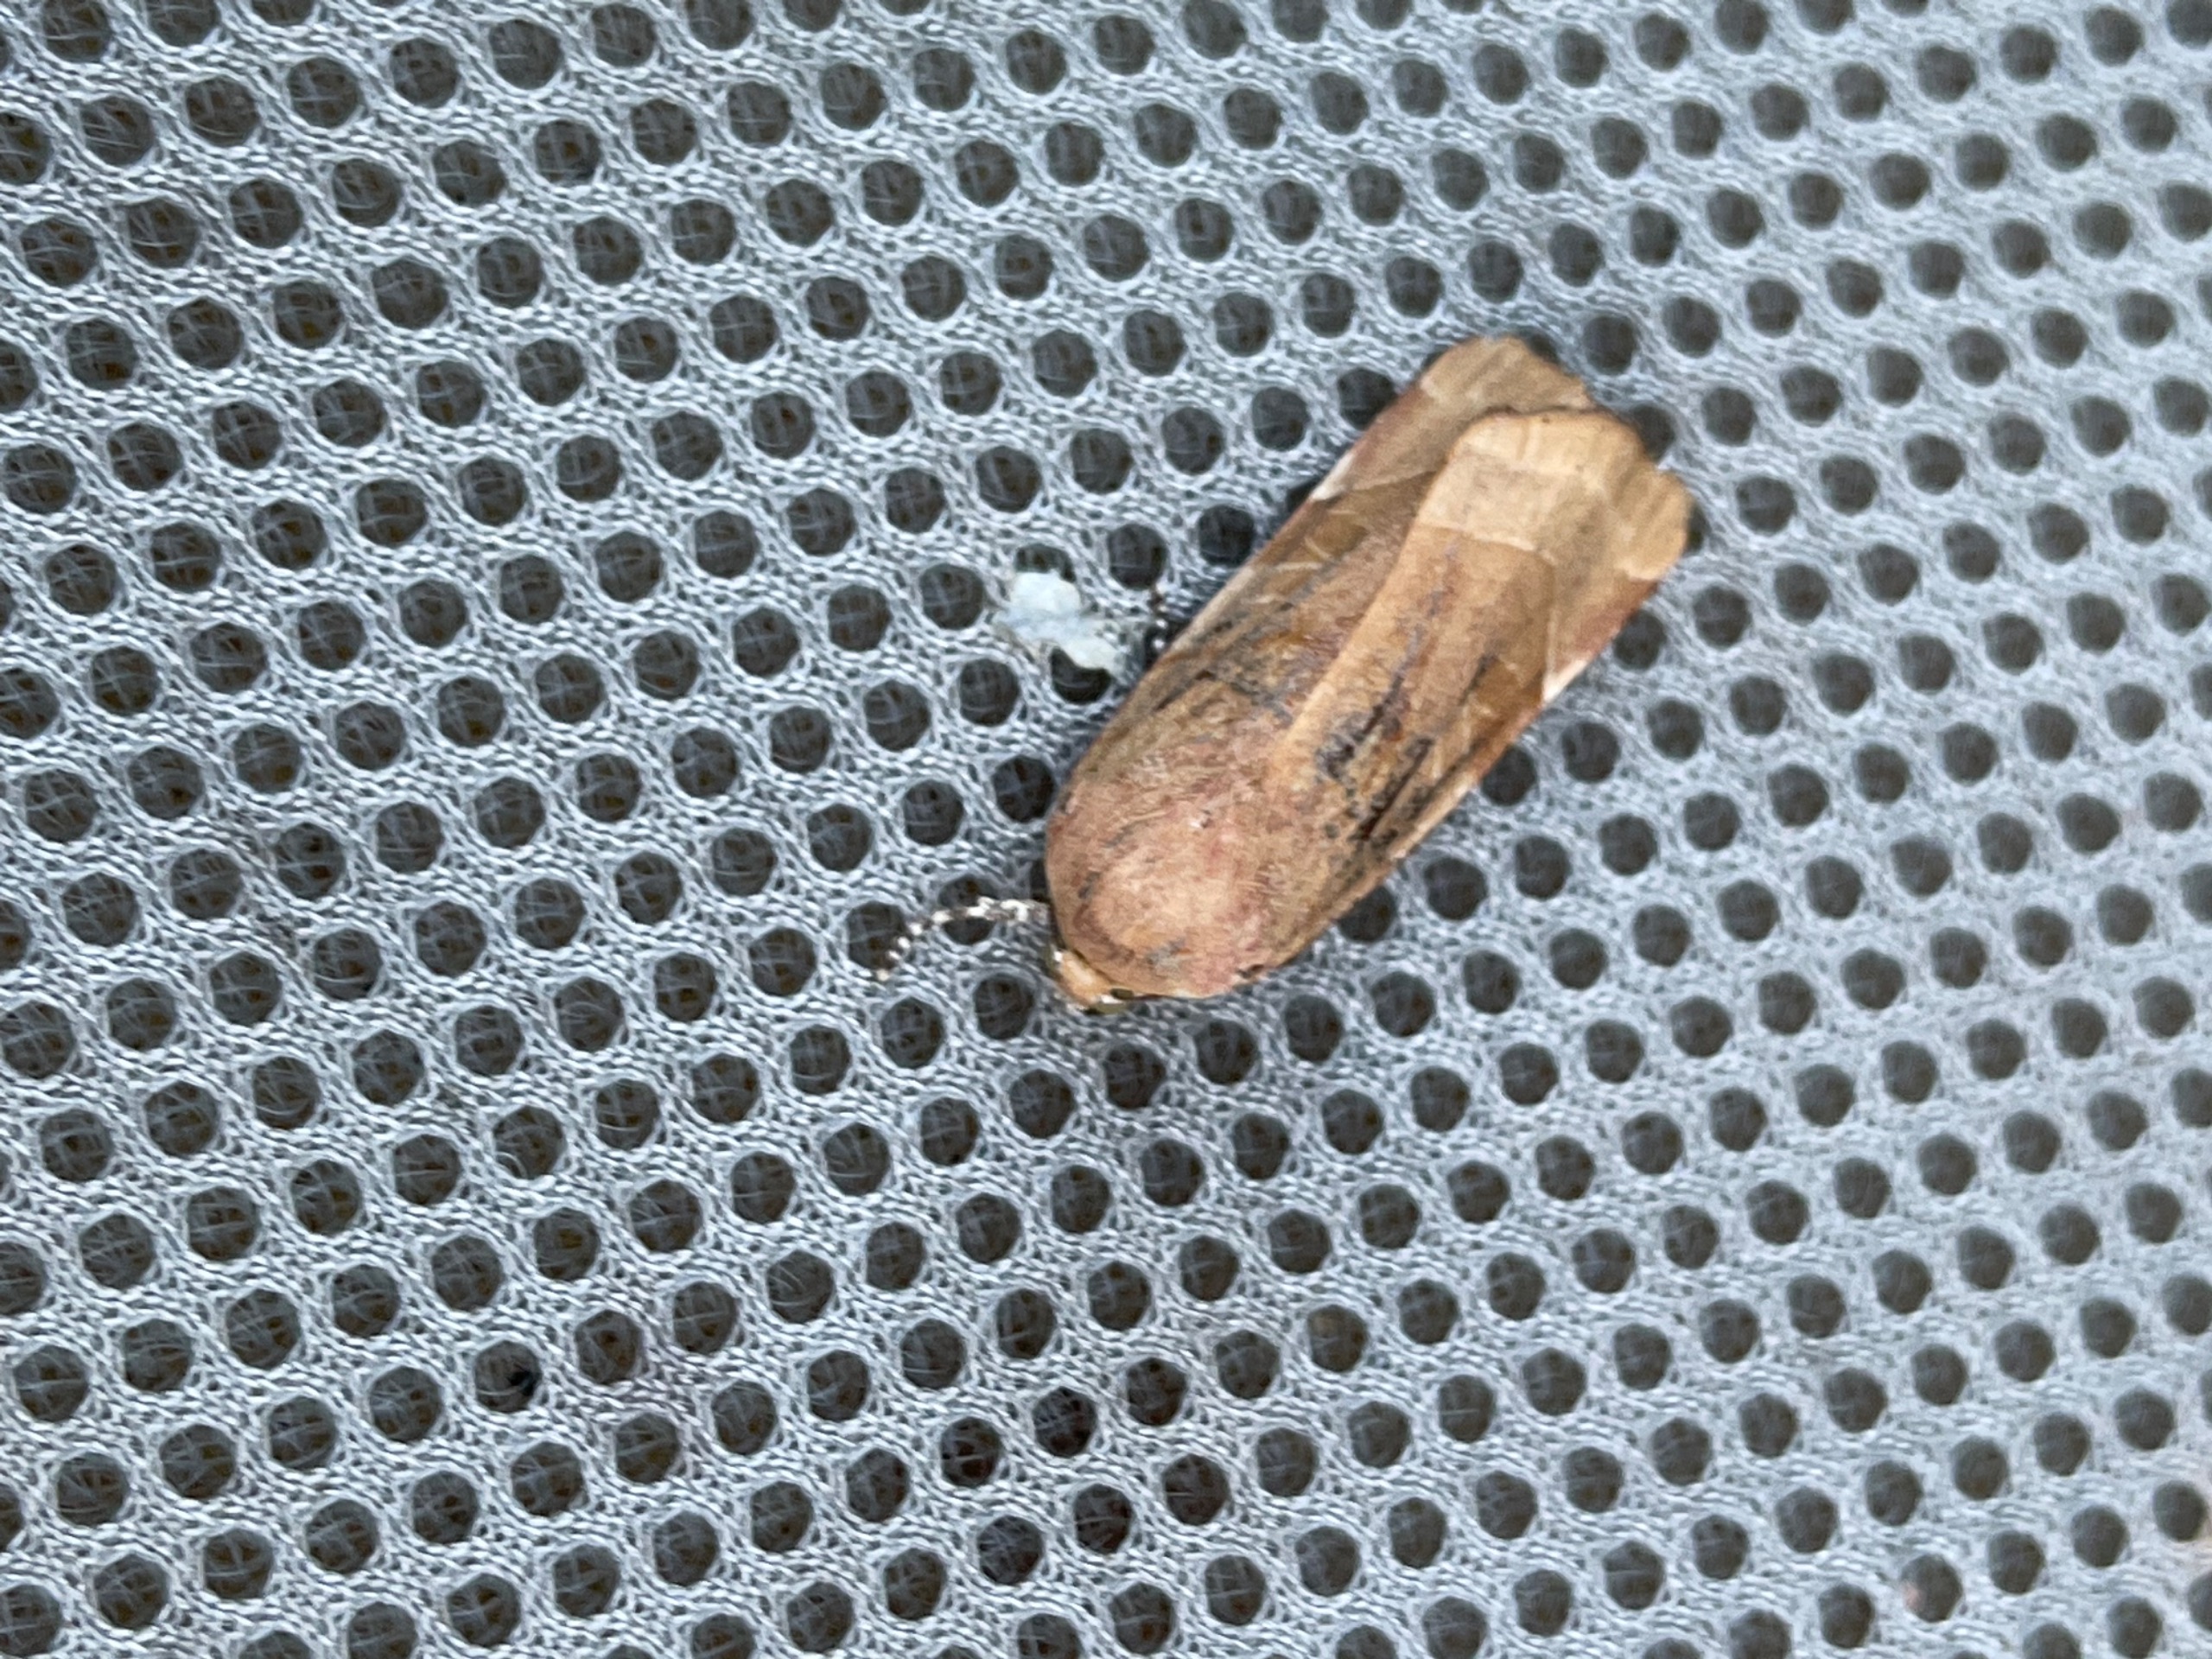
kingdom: Animalia
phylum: Arthropoda
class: Insecta
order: Lepidoptera
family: Noctuidae
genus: Noctua
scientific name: Noctua fimbriata
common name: Gul båndugle
